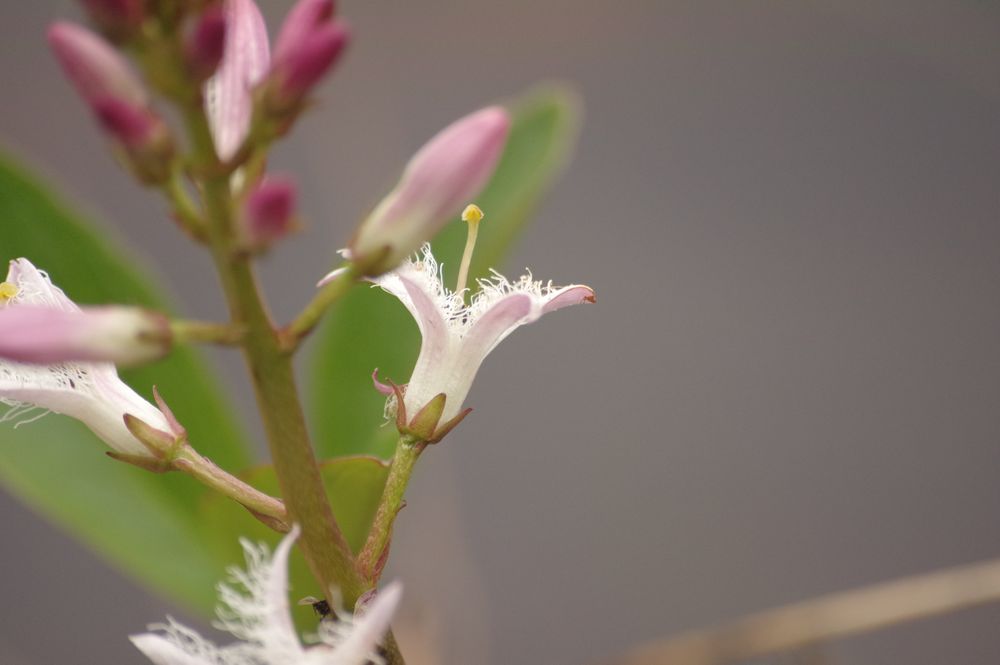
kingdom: Plantae
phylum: Tracheophyta
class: Magnoliopsida
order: Asterales
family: Menyanthaceae
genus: Menyanthes
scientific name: Menyanthes trifoliata
